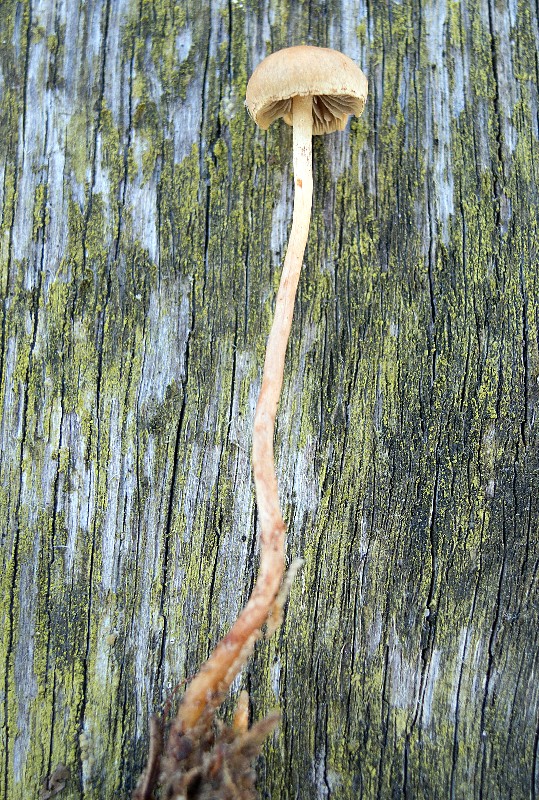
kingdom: Fungi
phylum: Basidiomycota
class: Agaricomycetes
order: Agaricales
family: Strophariaceae
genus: Hypholoma
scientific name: Hypholoma polytrichi
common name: jomfruhår-svovlhat
